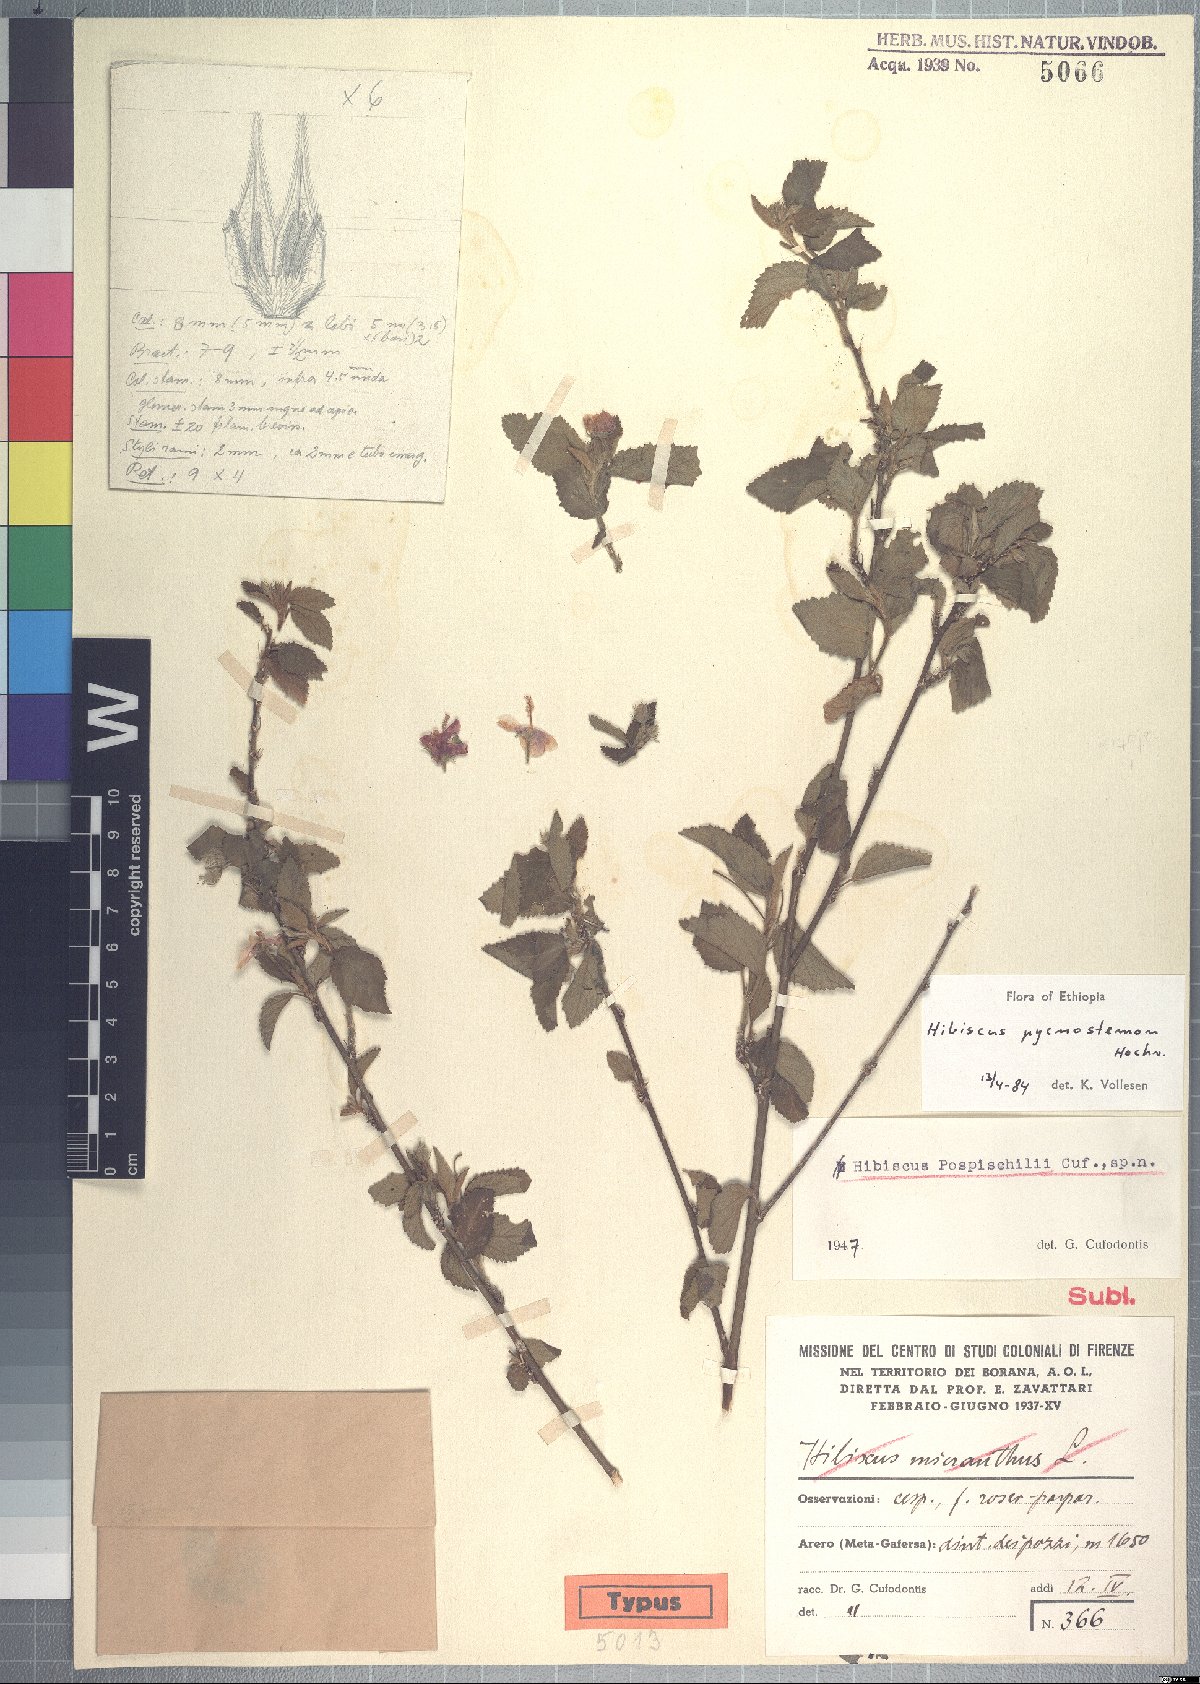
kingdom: Plantae
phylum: Tracheophyta
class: Magnoliopsida
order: Malvales
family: Malvaceae
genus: Hibiscus
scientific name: Hibiscus pycnostemon
